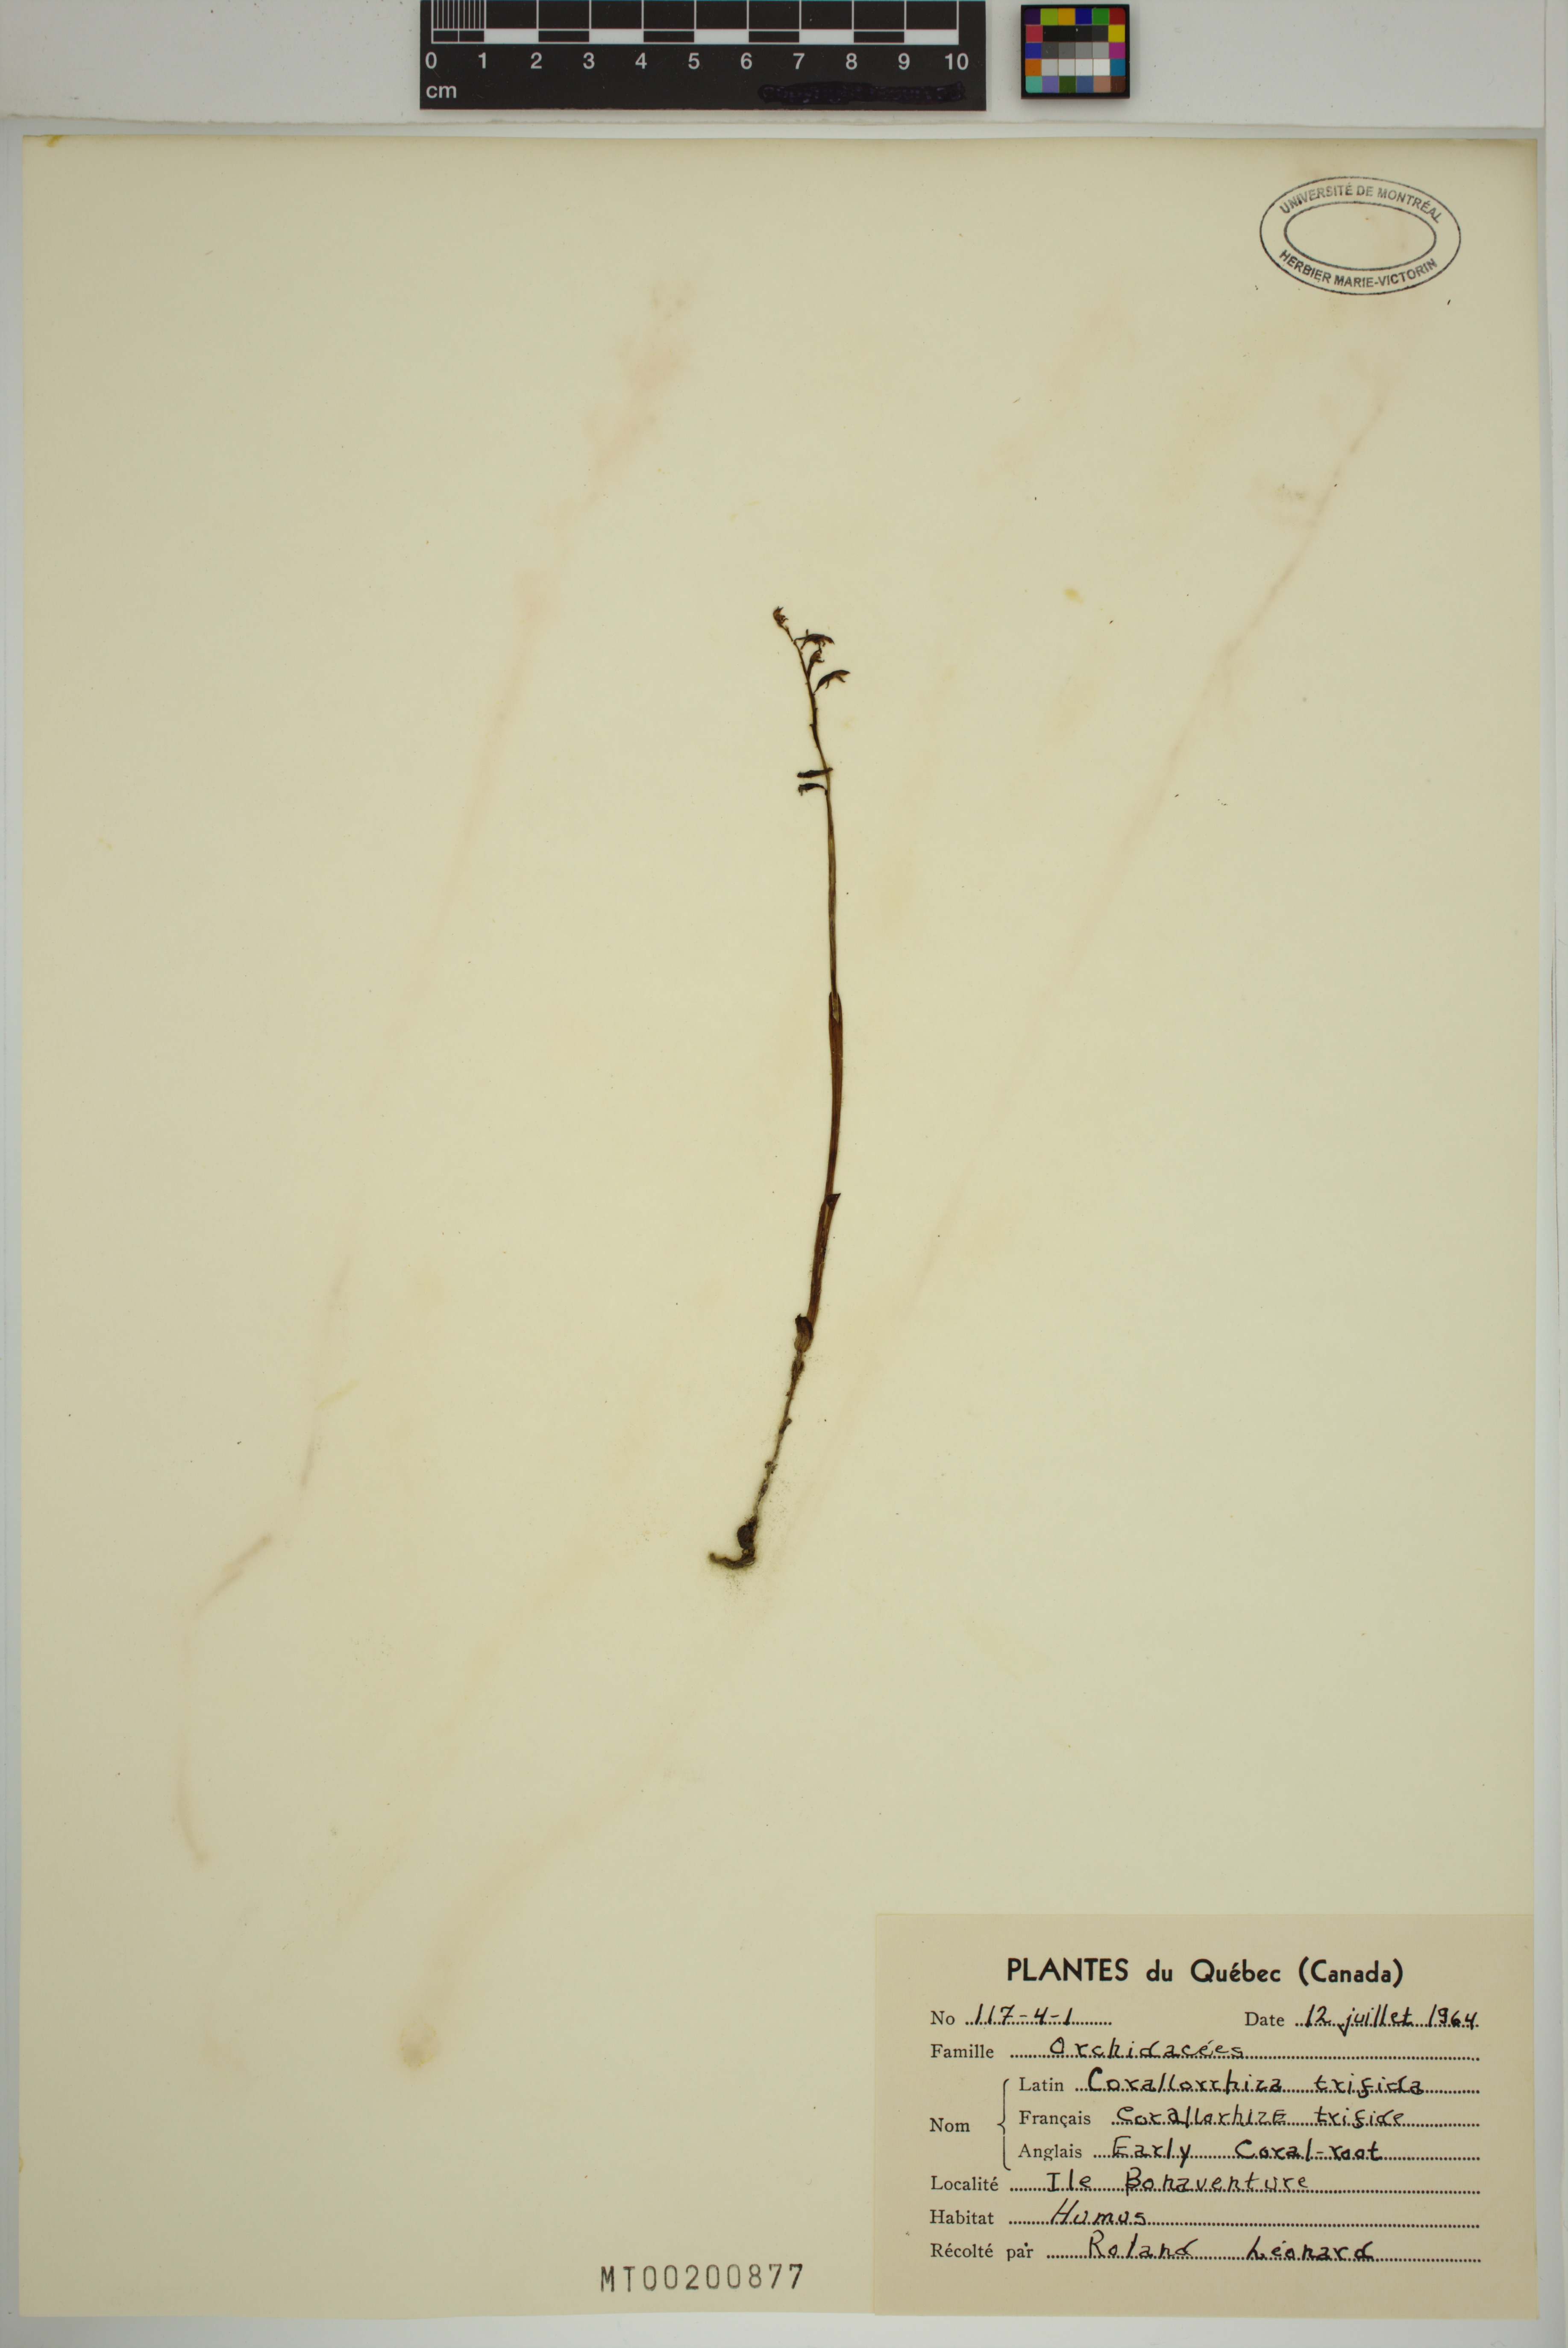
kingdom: Plantae
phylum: Tracheophyta
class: Liliopsida
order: Asparagales
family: Orchidaceae
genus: Corallorhiza
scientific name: Corallorhiza trifida
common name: Yellow coralroot
